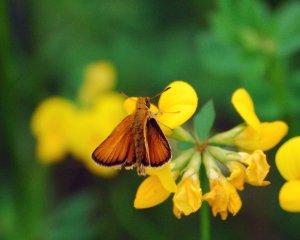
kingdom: Animalia
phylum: Arthropoda
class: Insecta
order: Lepidoptera
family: Hesperiidae
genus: Thymelicus
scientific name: Thymelicus lineola
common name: European Skipper
